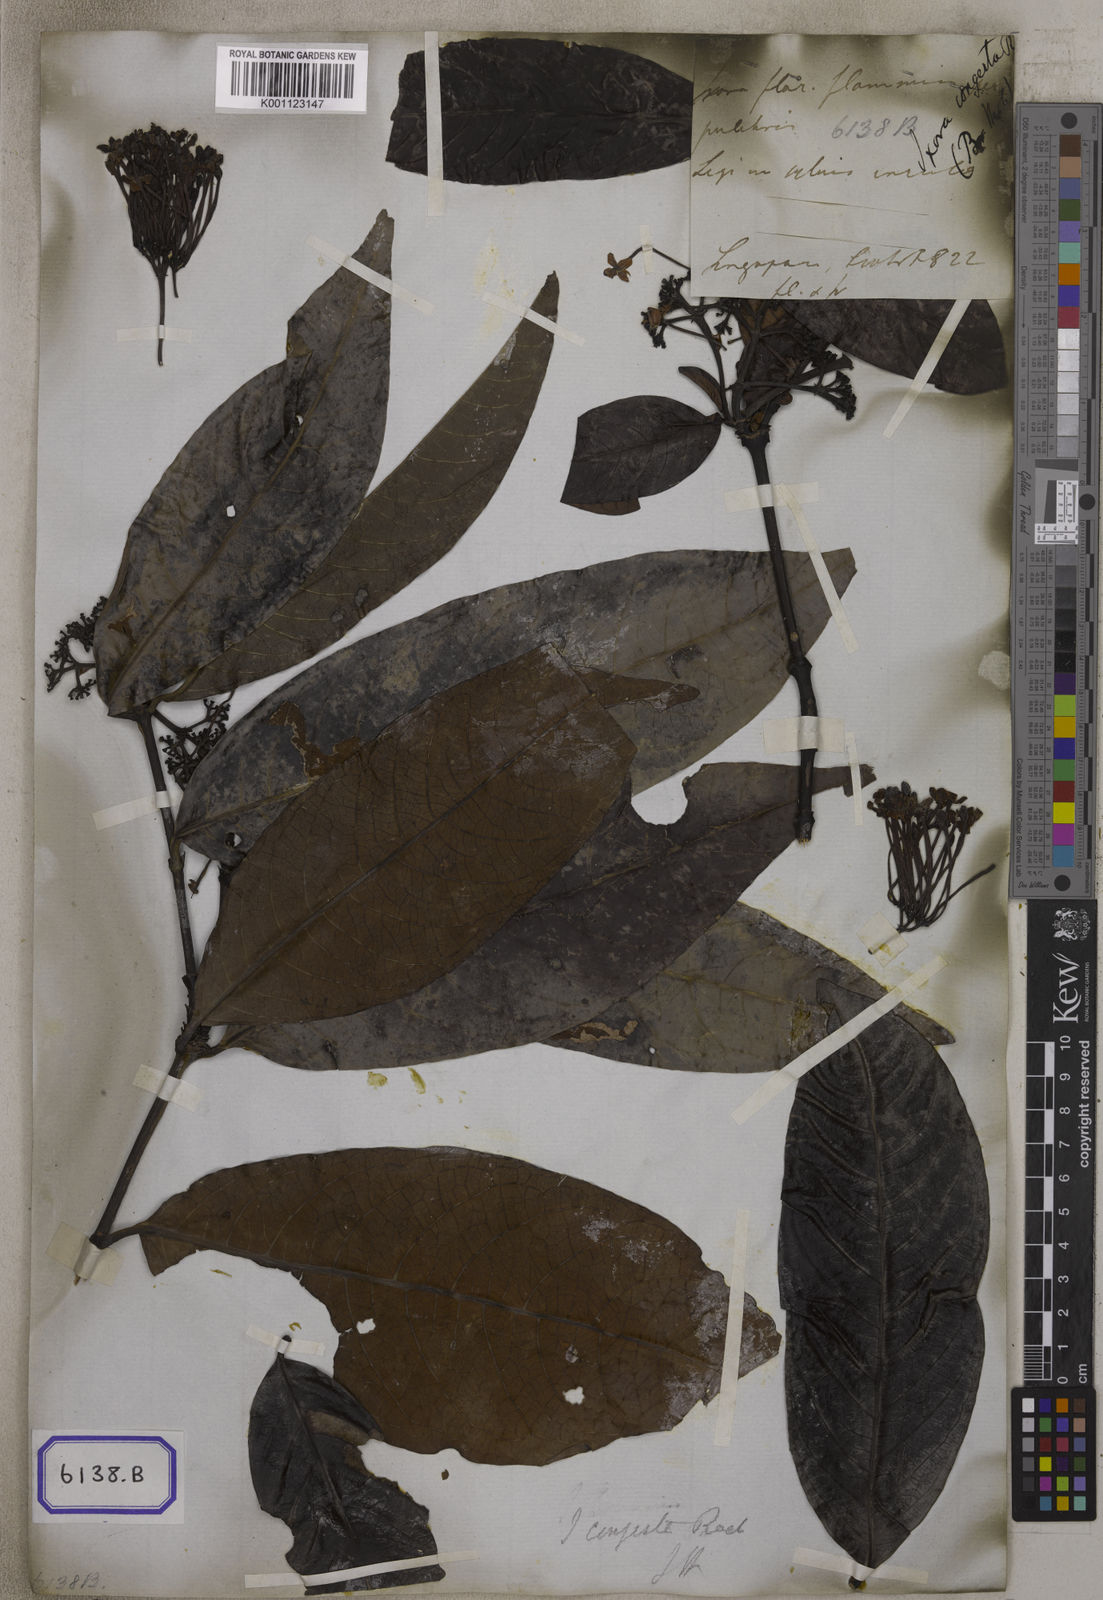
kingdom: Plantae
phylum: Tracheophyta
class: Magnoliopsida
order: Gentianales
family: Rubiaceae
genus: Ixora
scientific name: Ixora congesta
